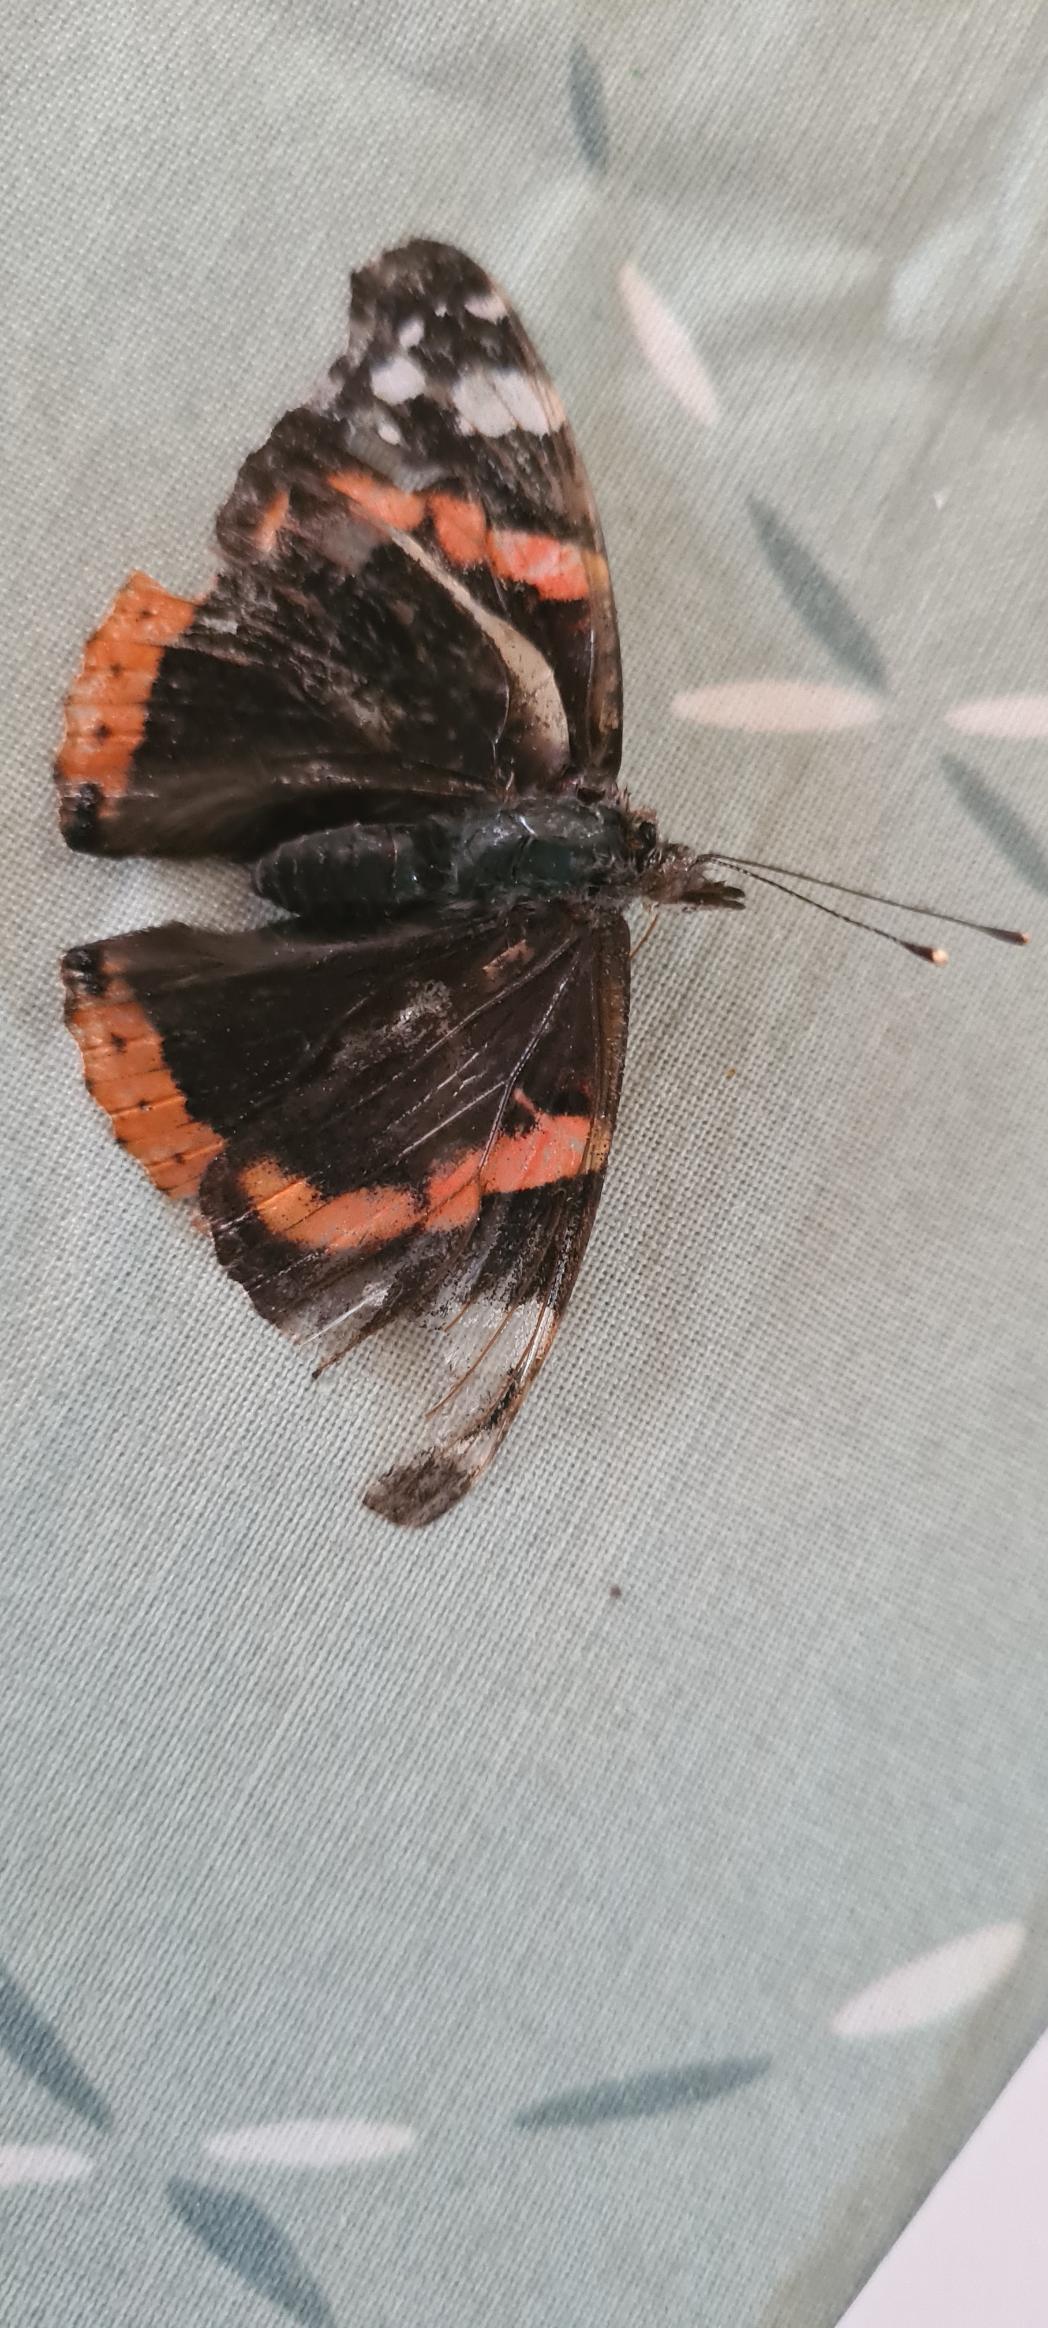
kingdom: Animalia
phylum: Arthropoda
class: Insecta
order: Lepidoptera
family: Nymphalidae
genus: Vanessa
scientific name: Vanessa atalanta
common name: Admiral
